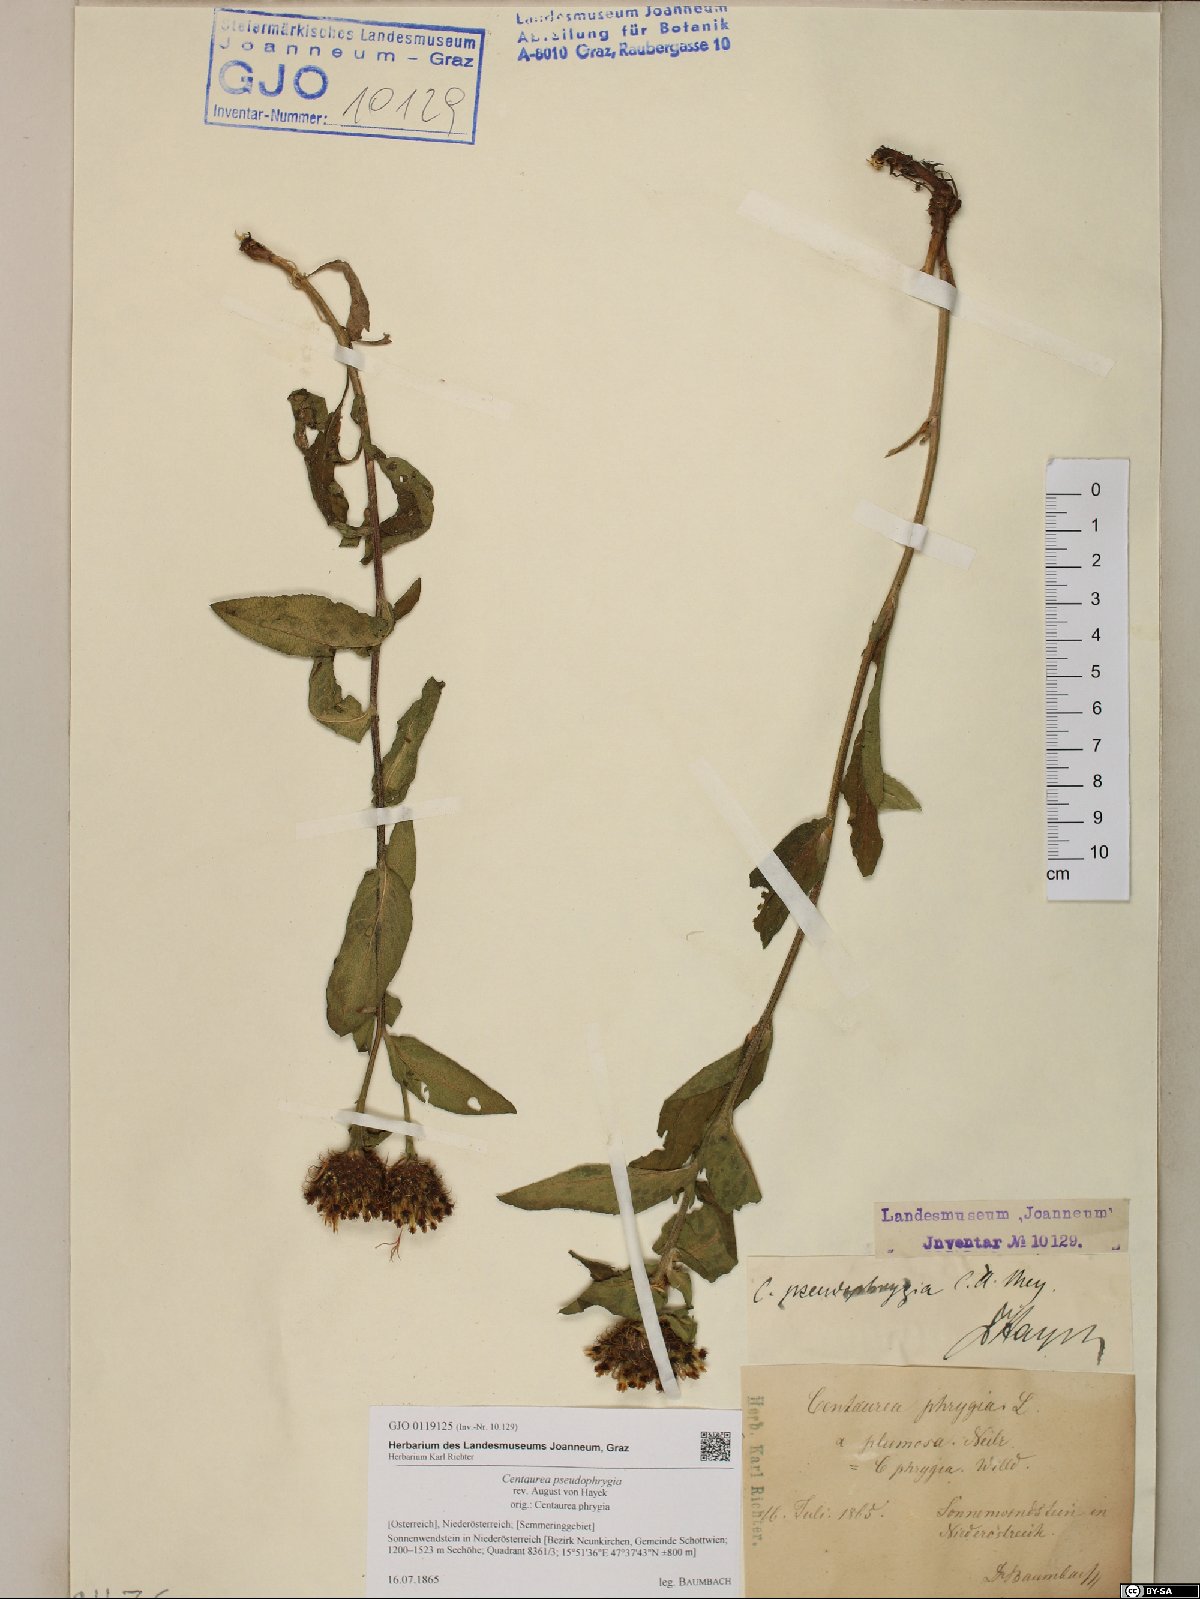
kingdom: Plantae
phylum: Tracheophyta
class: Magnoliopsida
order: Asterales
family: Asteraceae
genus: Centaurea
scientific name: Centaurea pseudophrygia
